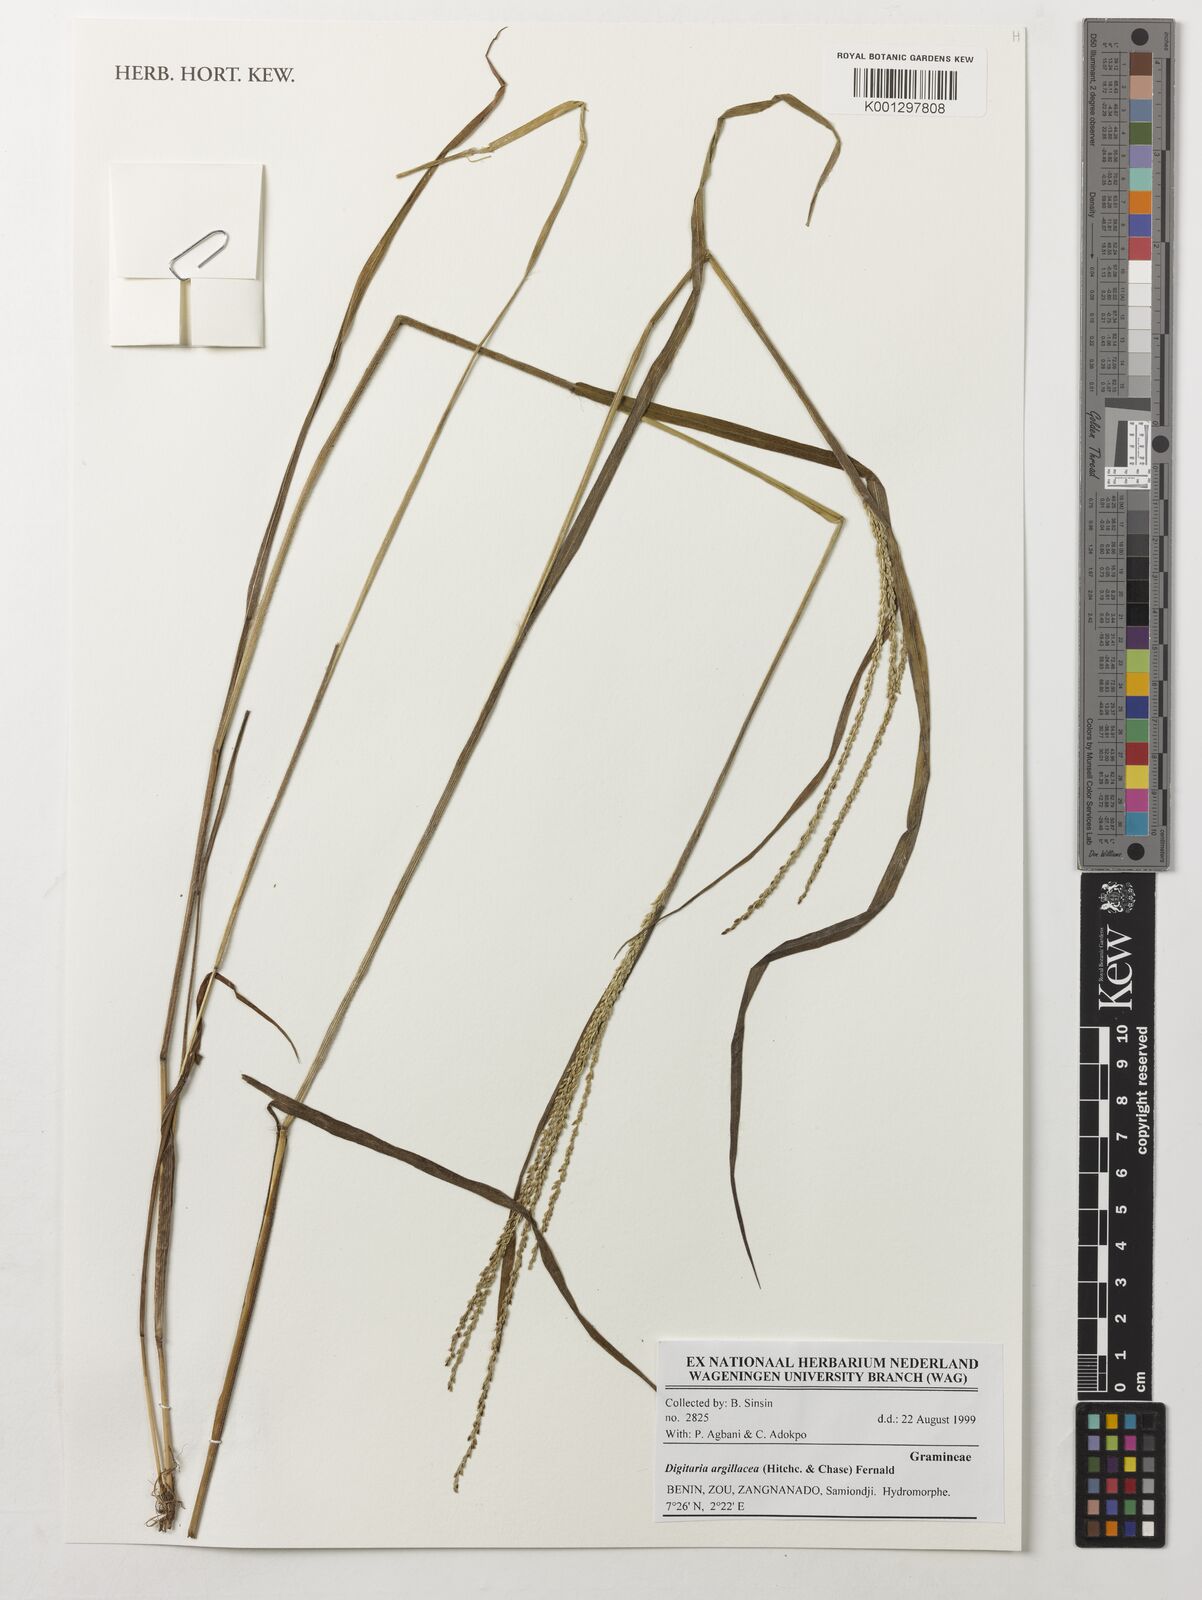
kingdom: Plantae
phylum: Tracheophyta
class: Liliopsida
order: Poales
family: Poaceae
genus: Digitaria
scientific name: Digitaria argillacea
